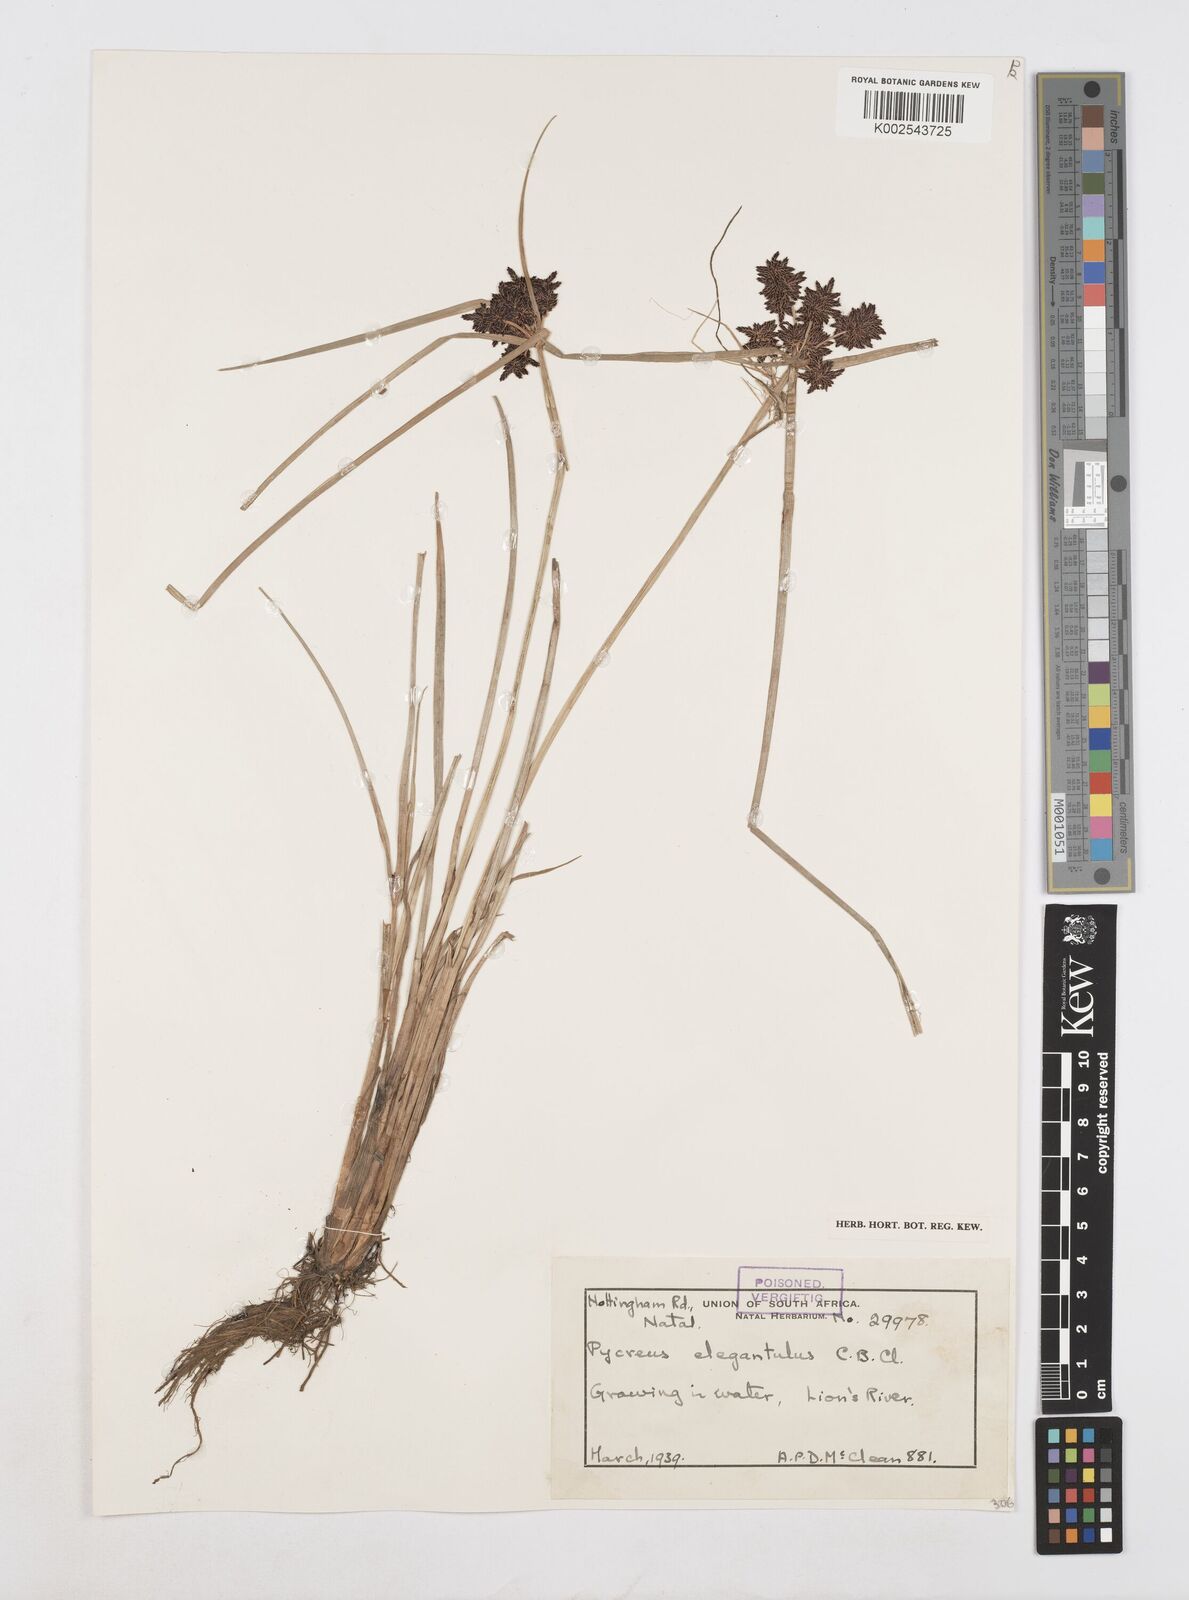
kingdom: Plantae
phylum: Tracheophyta
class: Liliopsida
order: Poales
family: Cyperaceae
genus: Cyperus
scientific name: Cyperus elegantulus
